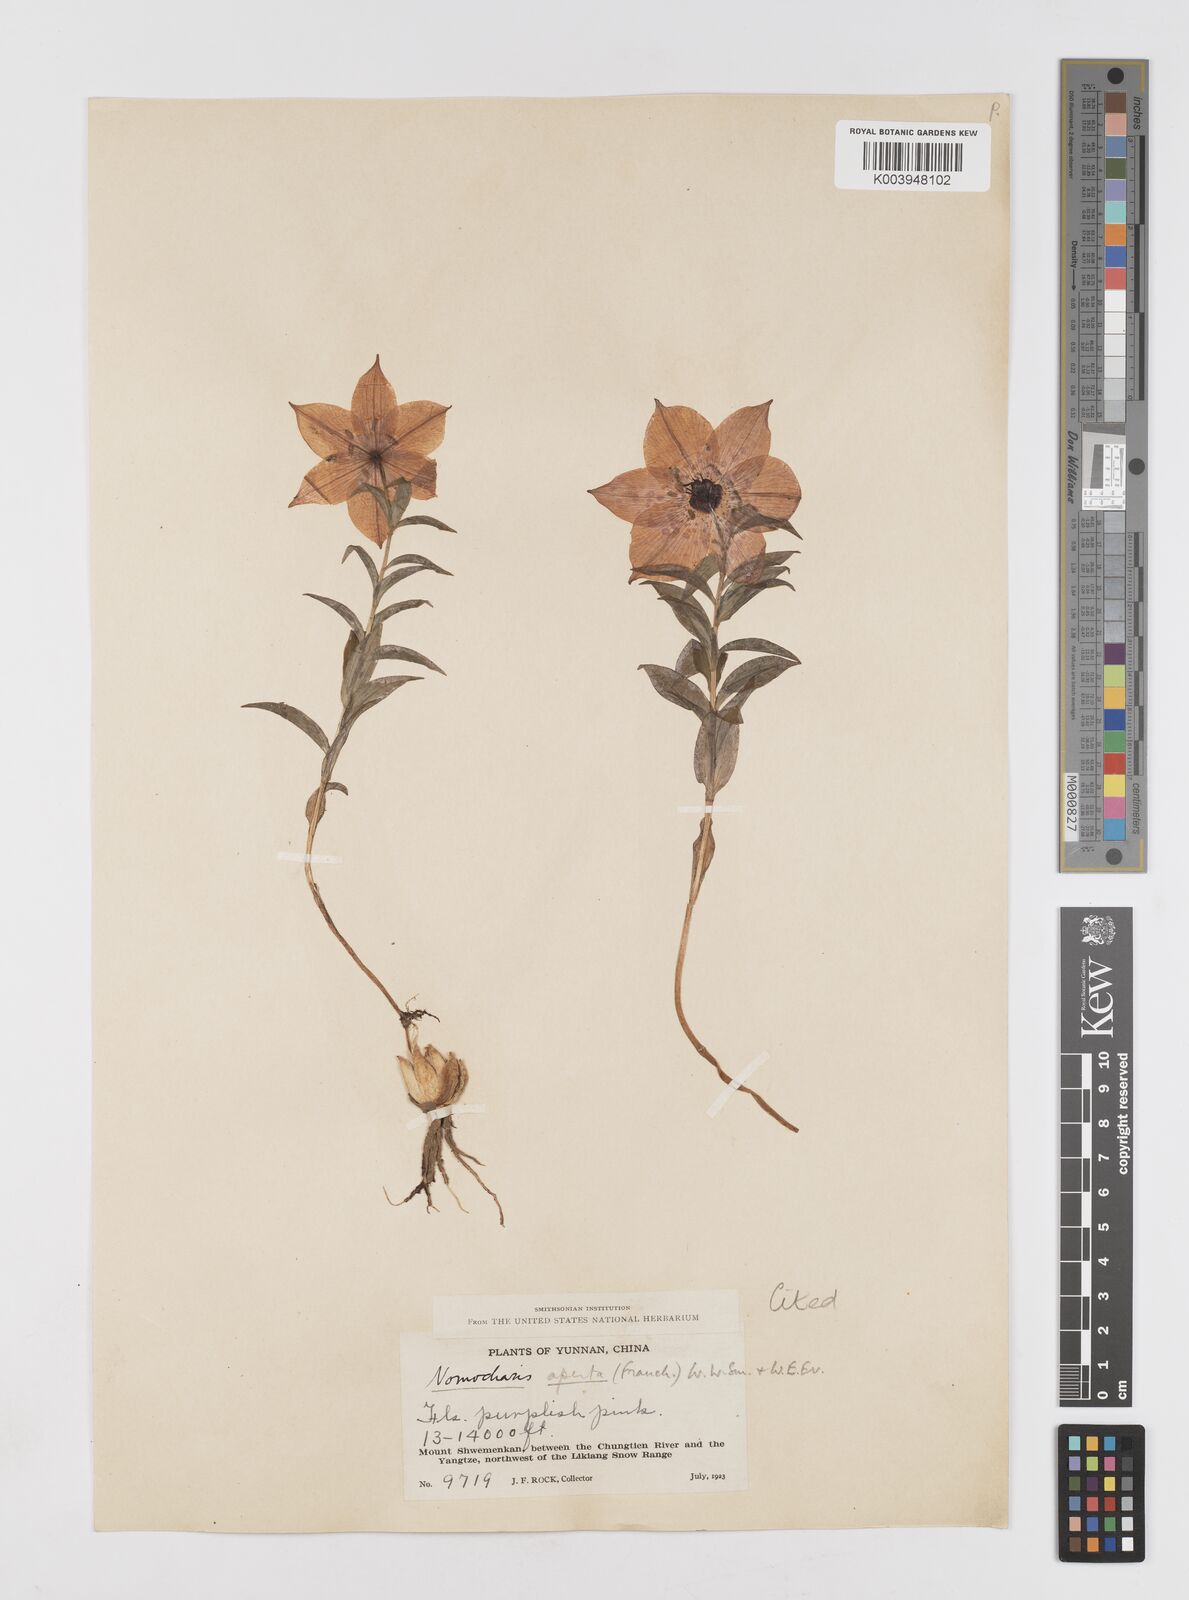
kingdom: Plantae
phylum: Tracheophyta
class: Liliopsida
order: Liliales
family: Liliaceae
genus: Lilium
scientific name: Lilium apertum
